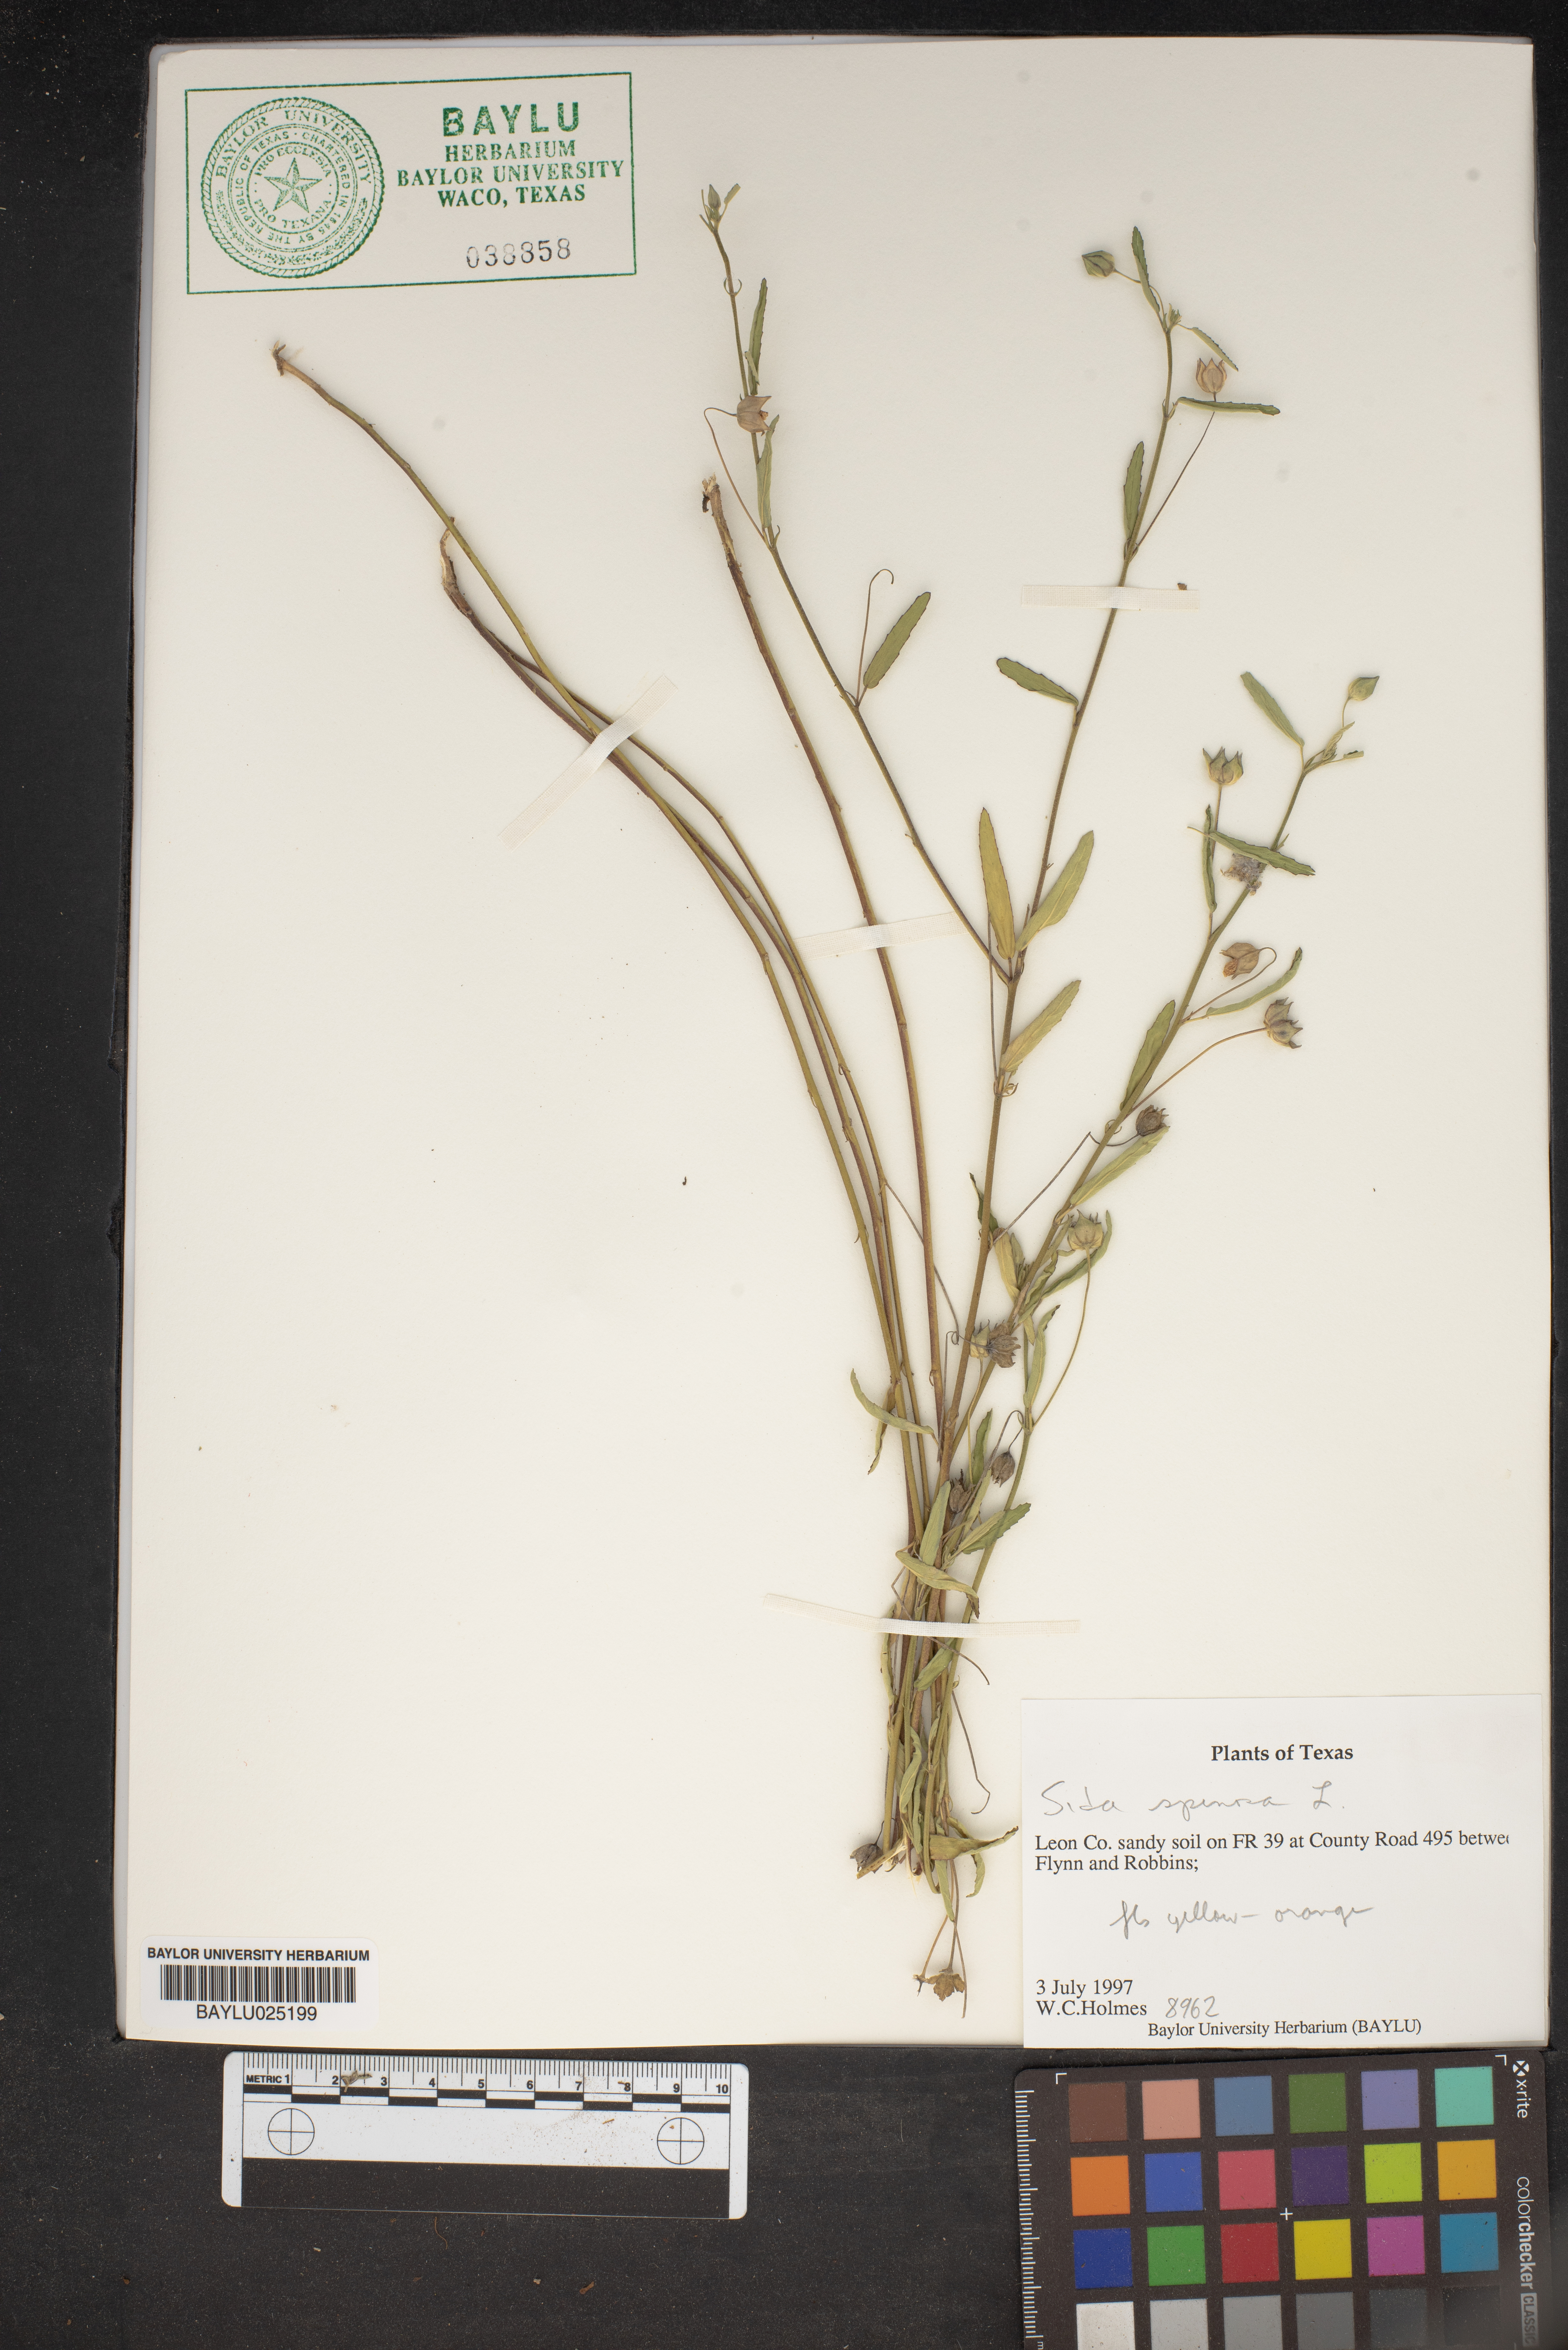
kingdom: Plantae
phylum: Tracheophyta
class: Magnoliopsida
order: Malvales
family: Malvaceae
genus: Sida
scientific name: Sida spinosa
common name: Prickly fanpetals
